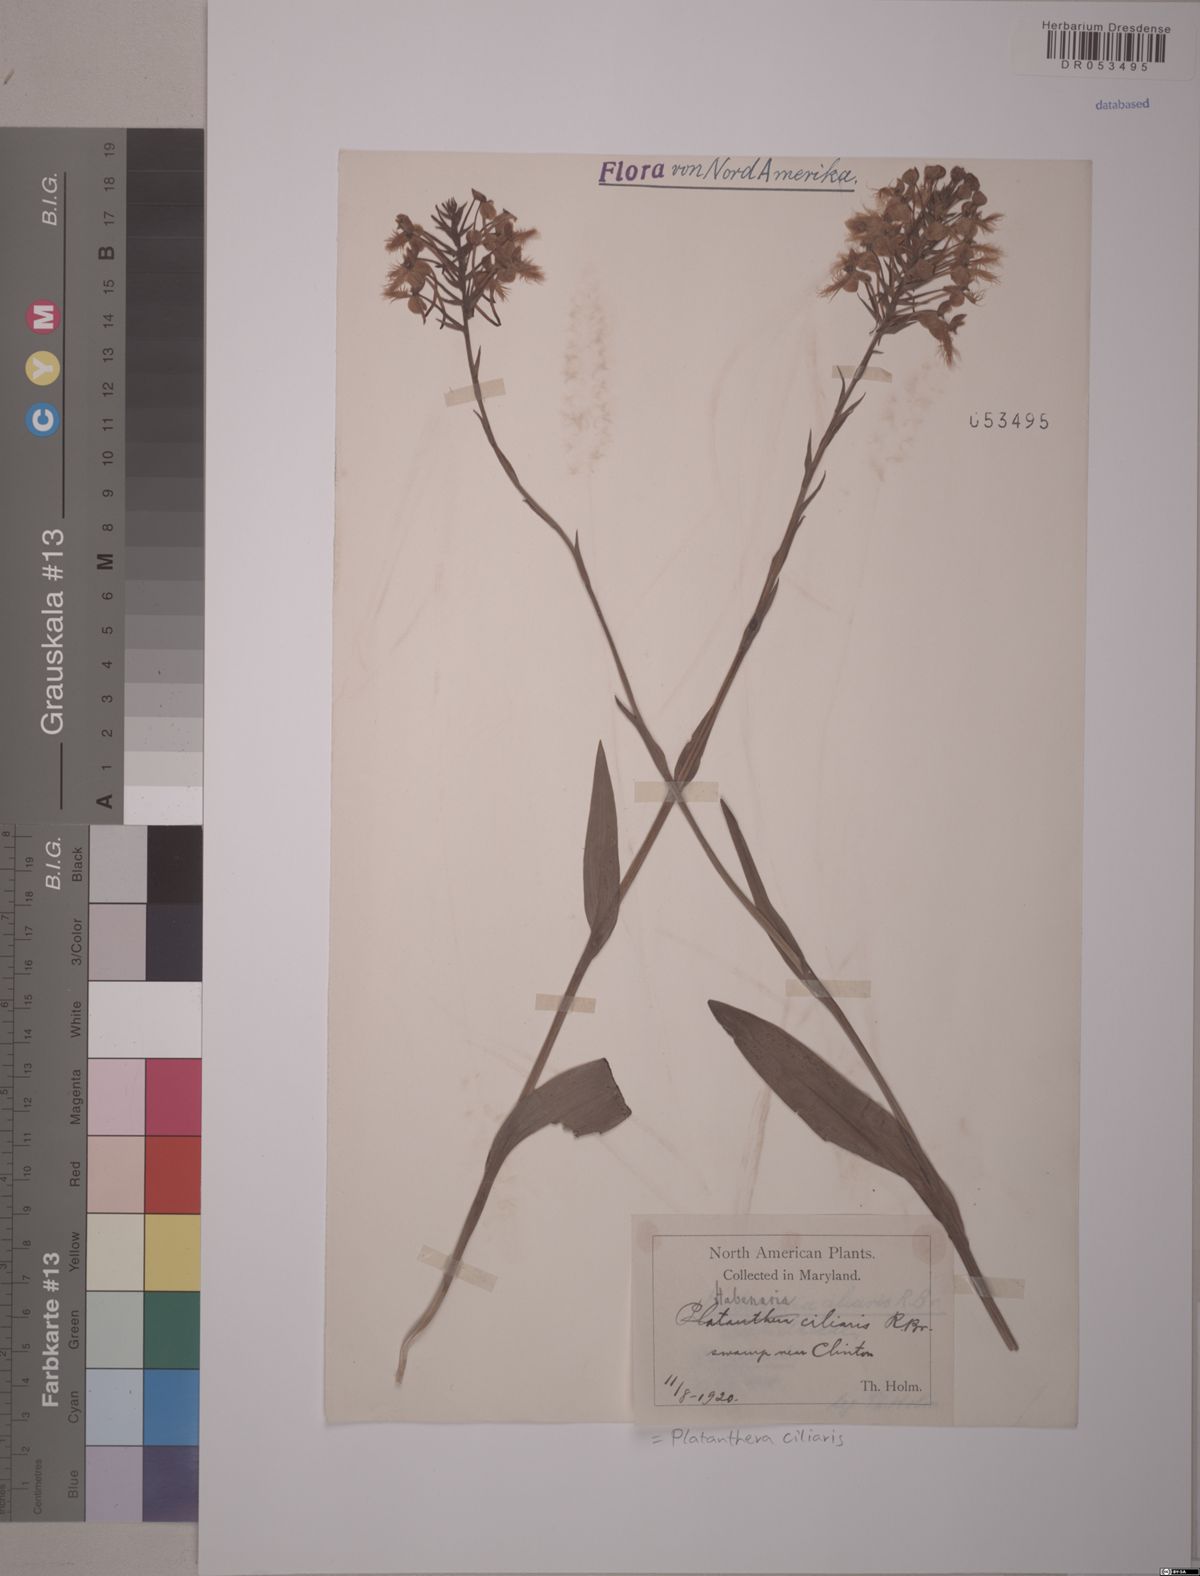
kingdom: Plantae
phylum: Tracheophyta
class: Liliopsida
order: Asparagales
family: Orchidaceae
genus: Platanthera
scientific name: Platanthera ciliaris
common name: Yellow fringed orchid
